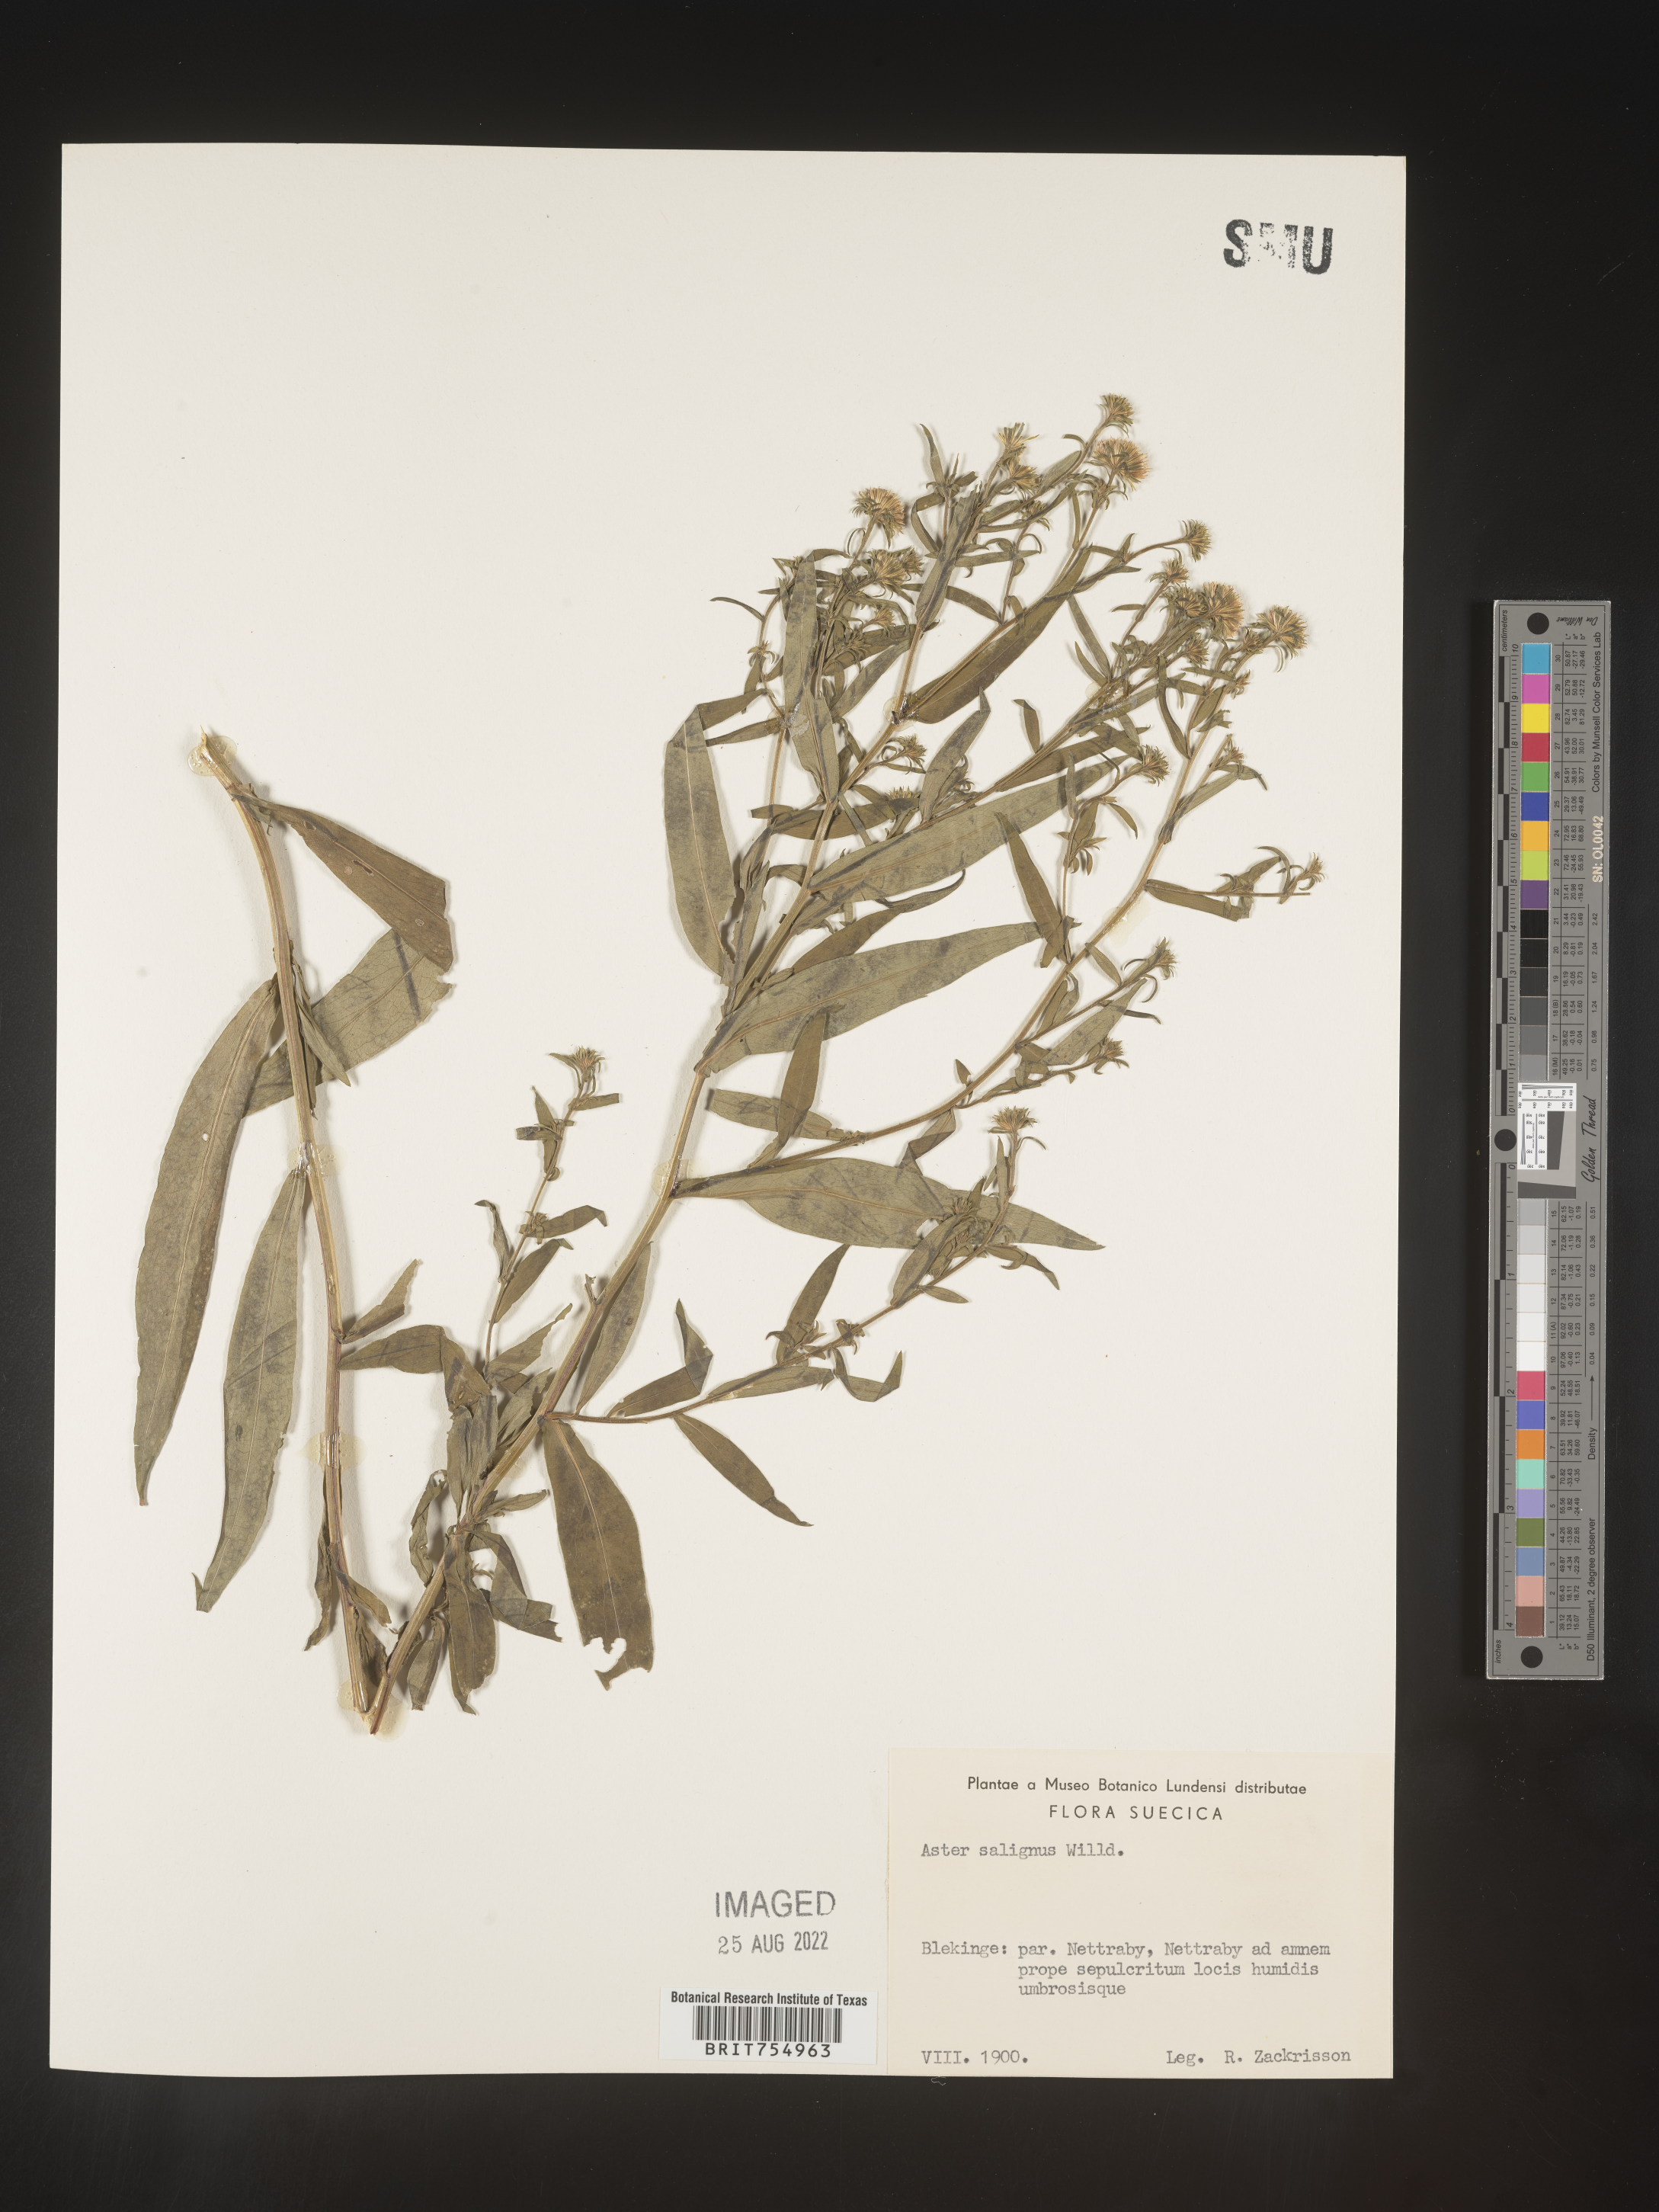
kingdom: Plantae
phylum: Tracheophyta
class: Magnoliopsida
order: Asterales
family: Asteraceae
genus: Symphyotrichum
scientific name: Symphyotrichum
